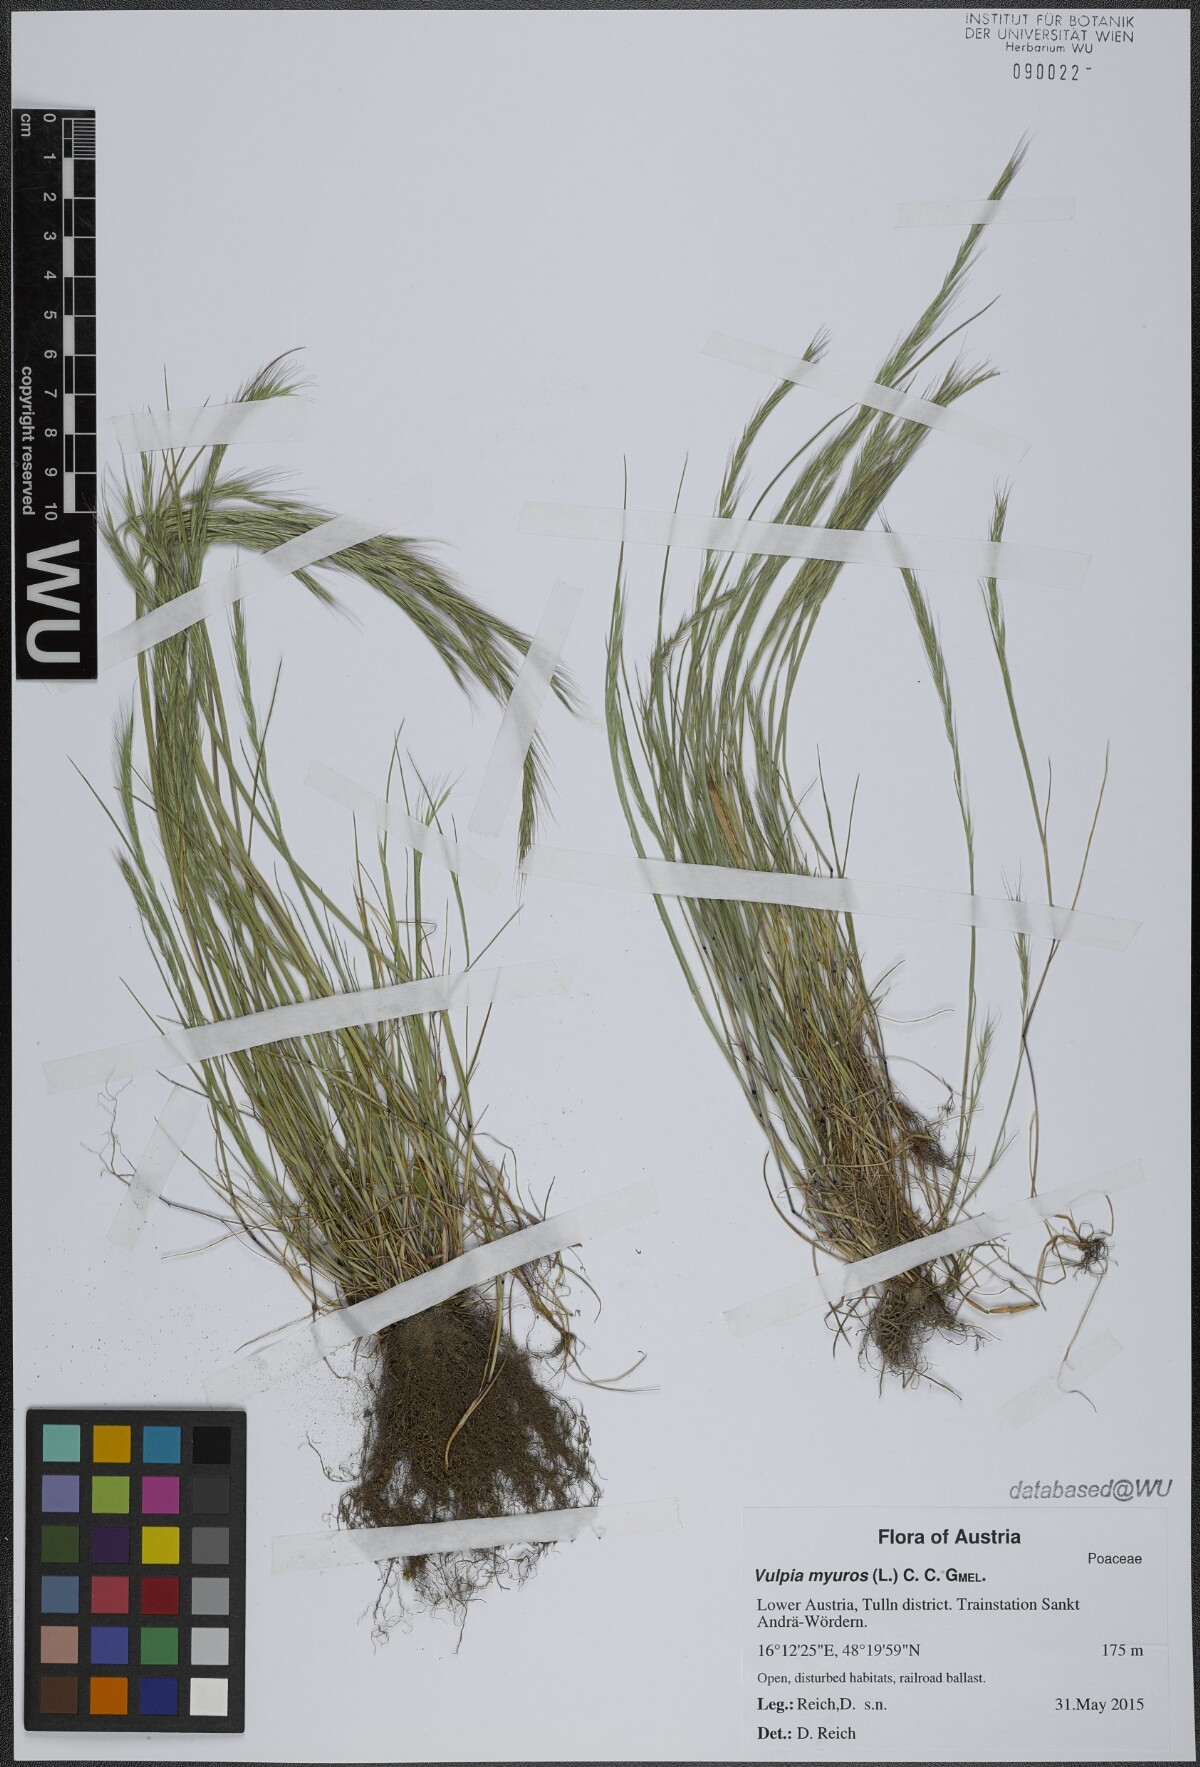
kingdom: Plantae
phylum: Tracheophyta
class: Liliopsida
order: Poales
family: Poaceae
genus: Festuca
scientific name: Festuca myuros
